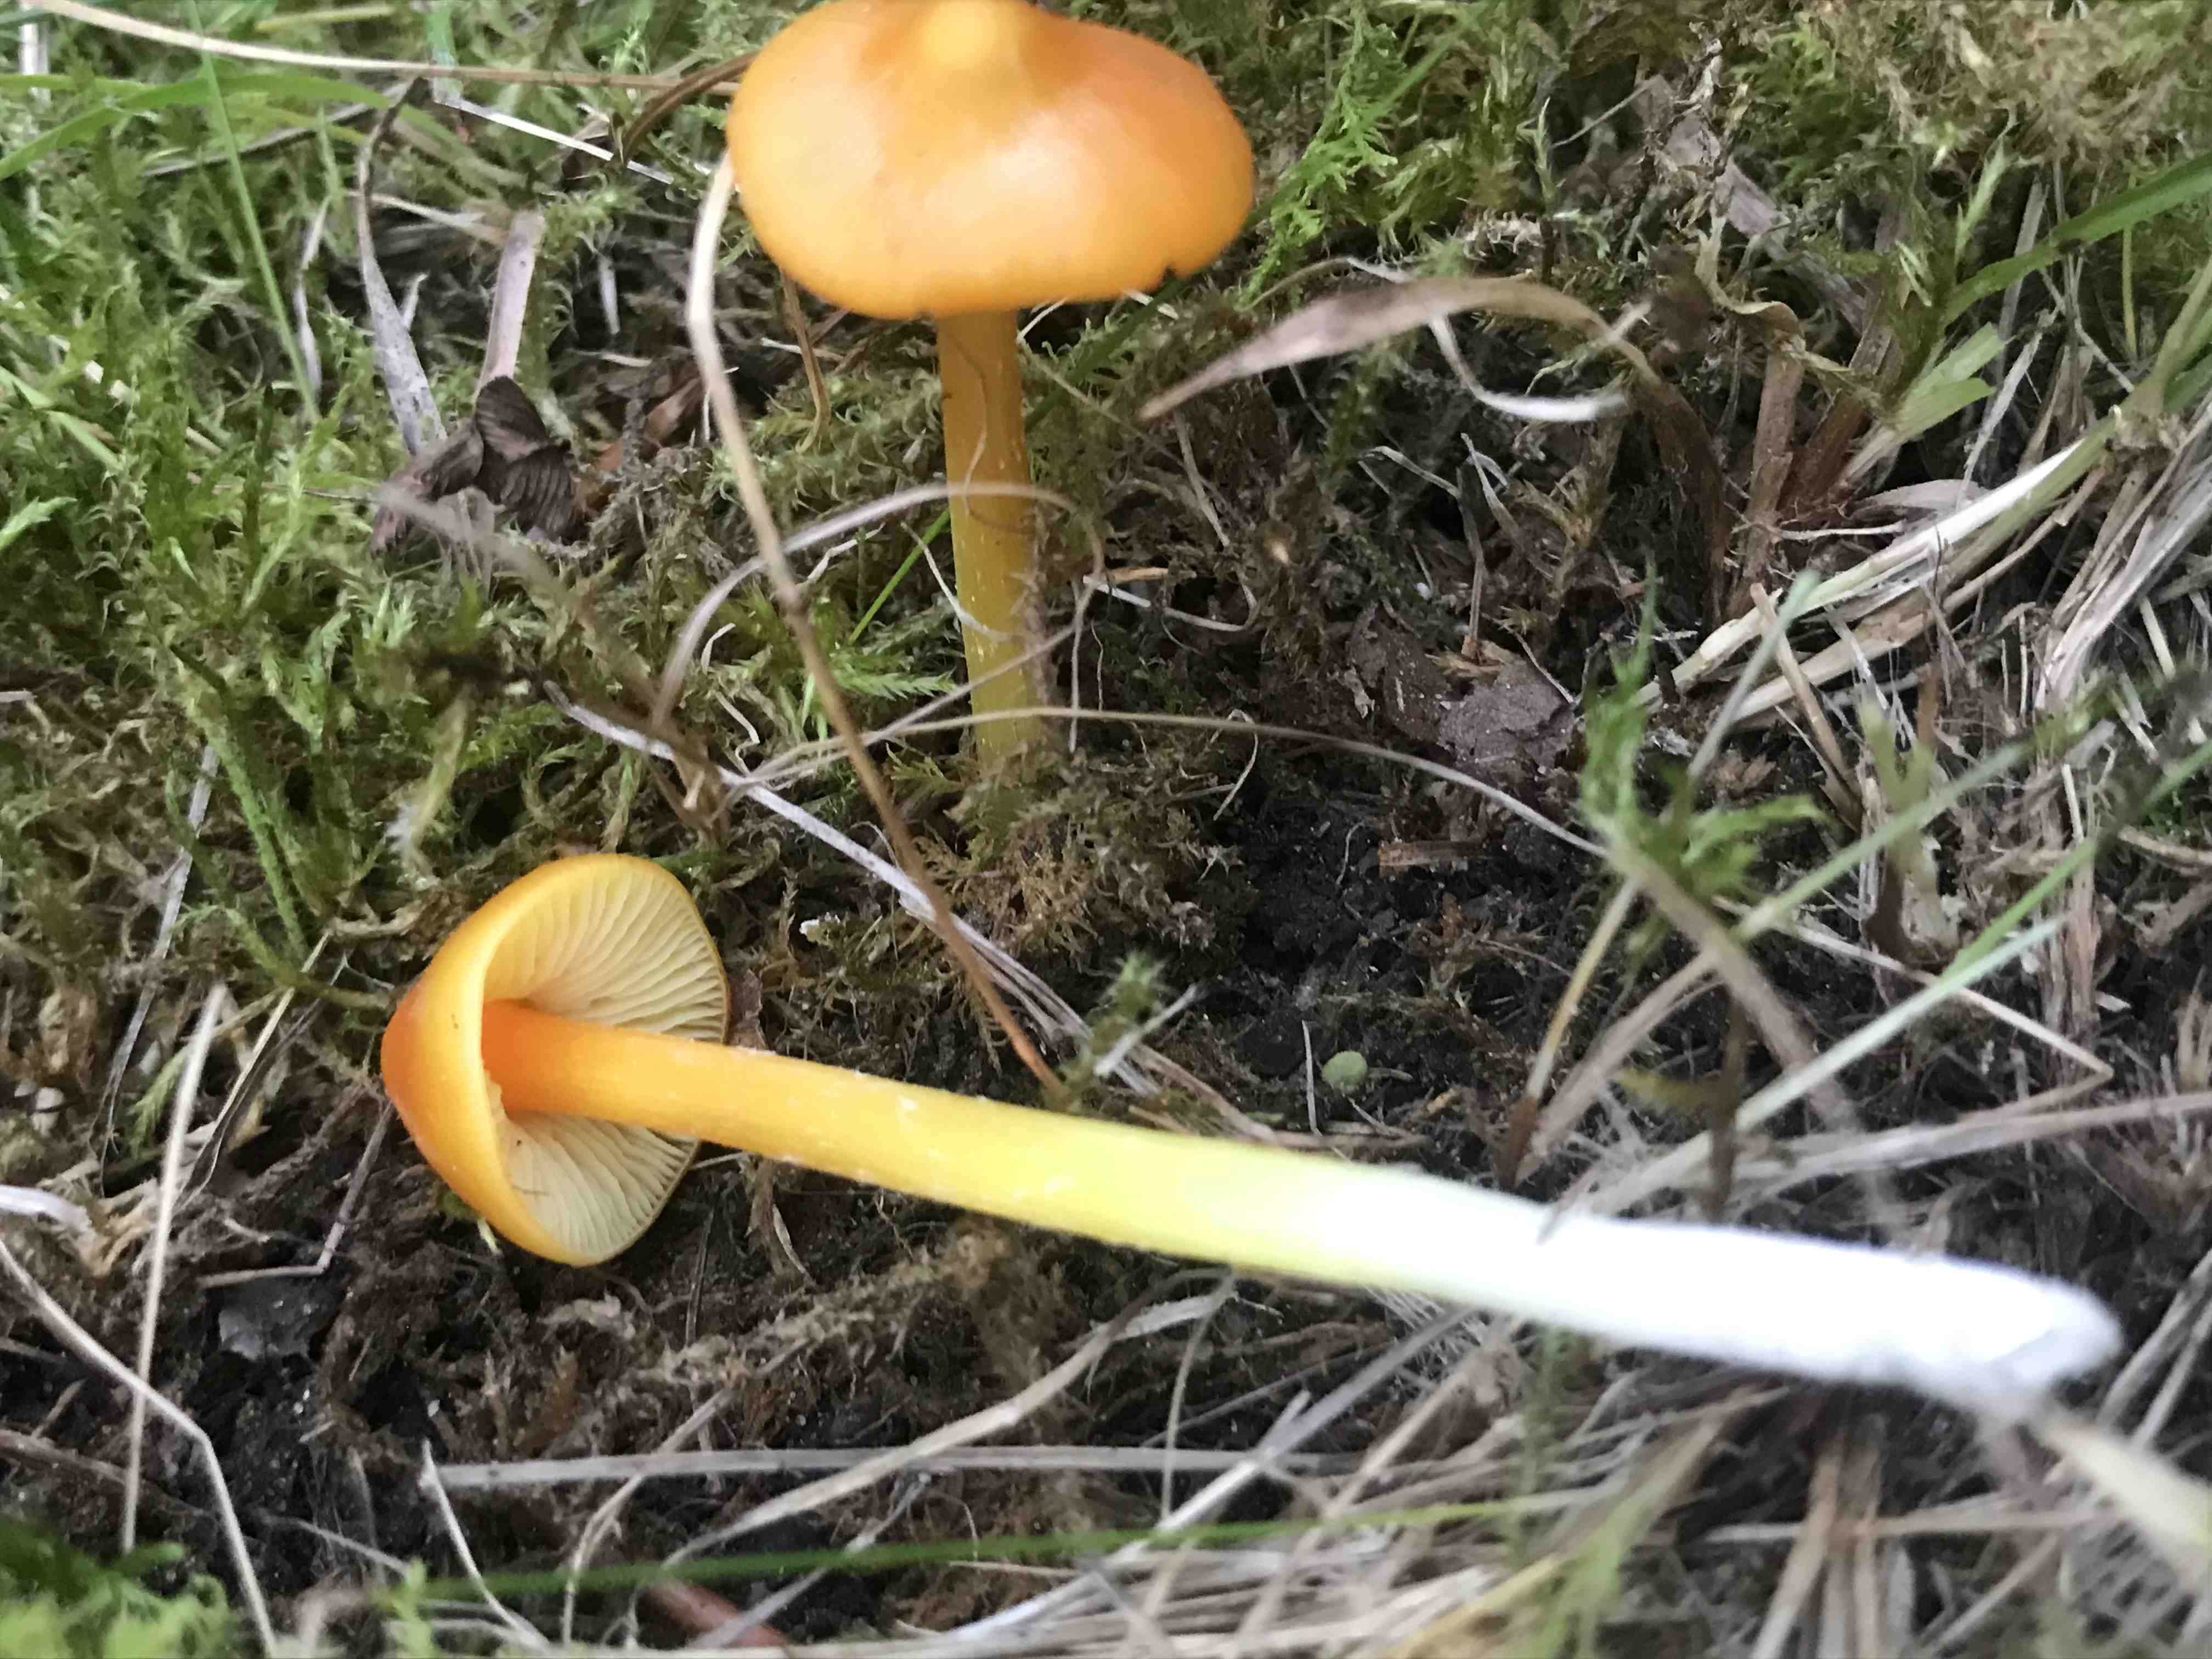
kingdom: Fungi
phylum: Basidiomycota
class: Agaricomycetes
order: Agaricales
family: Hygrophoraceae
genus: Hygrocybe
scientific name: Hygrocybe
